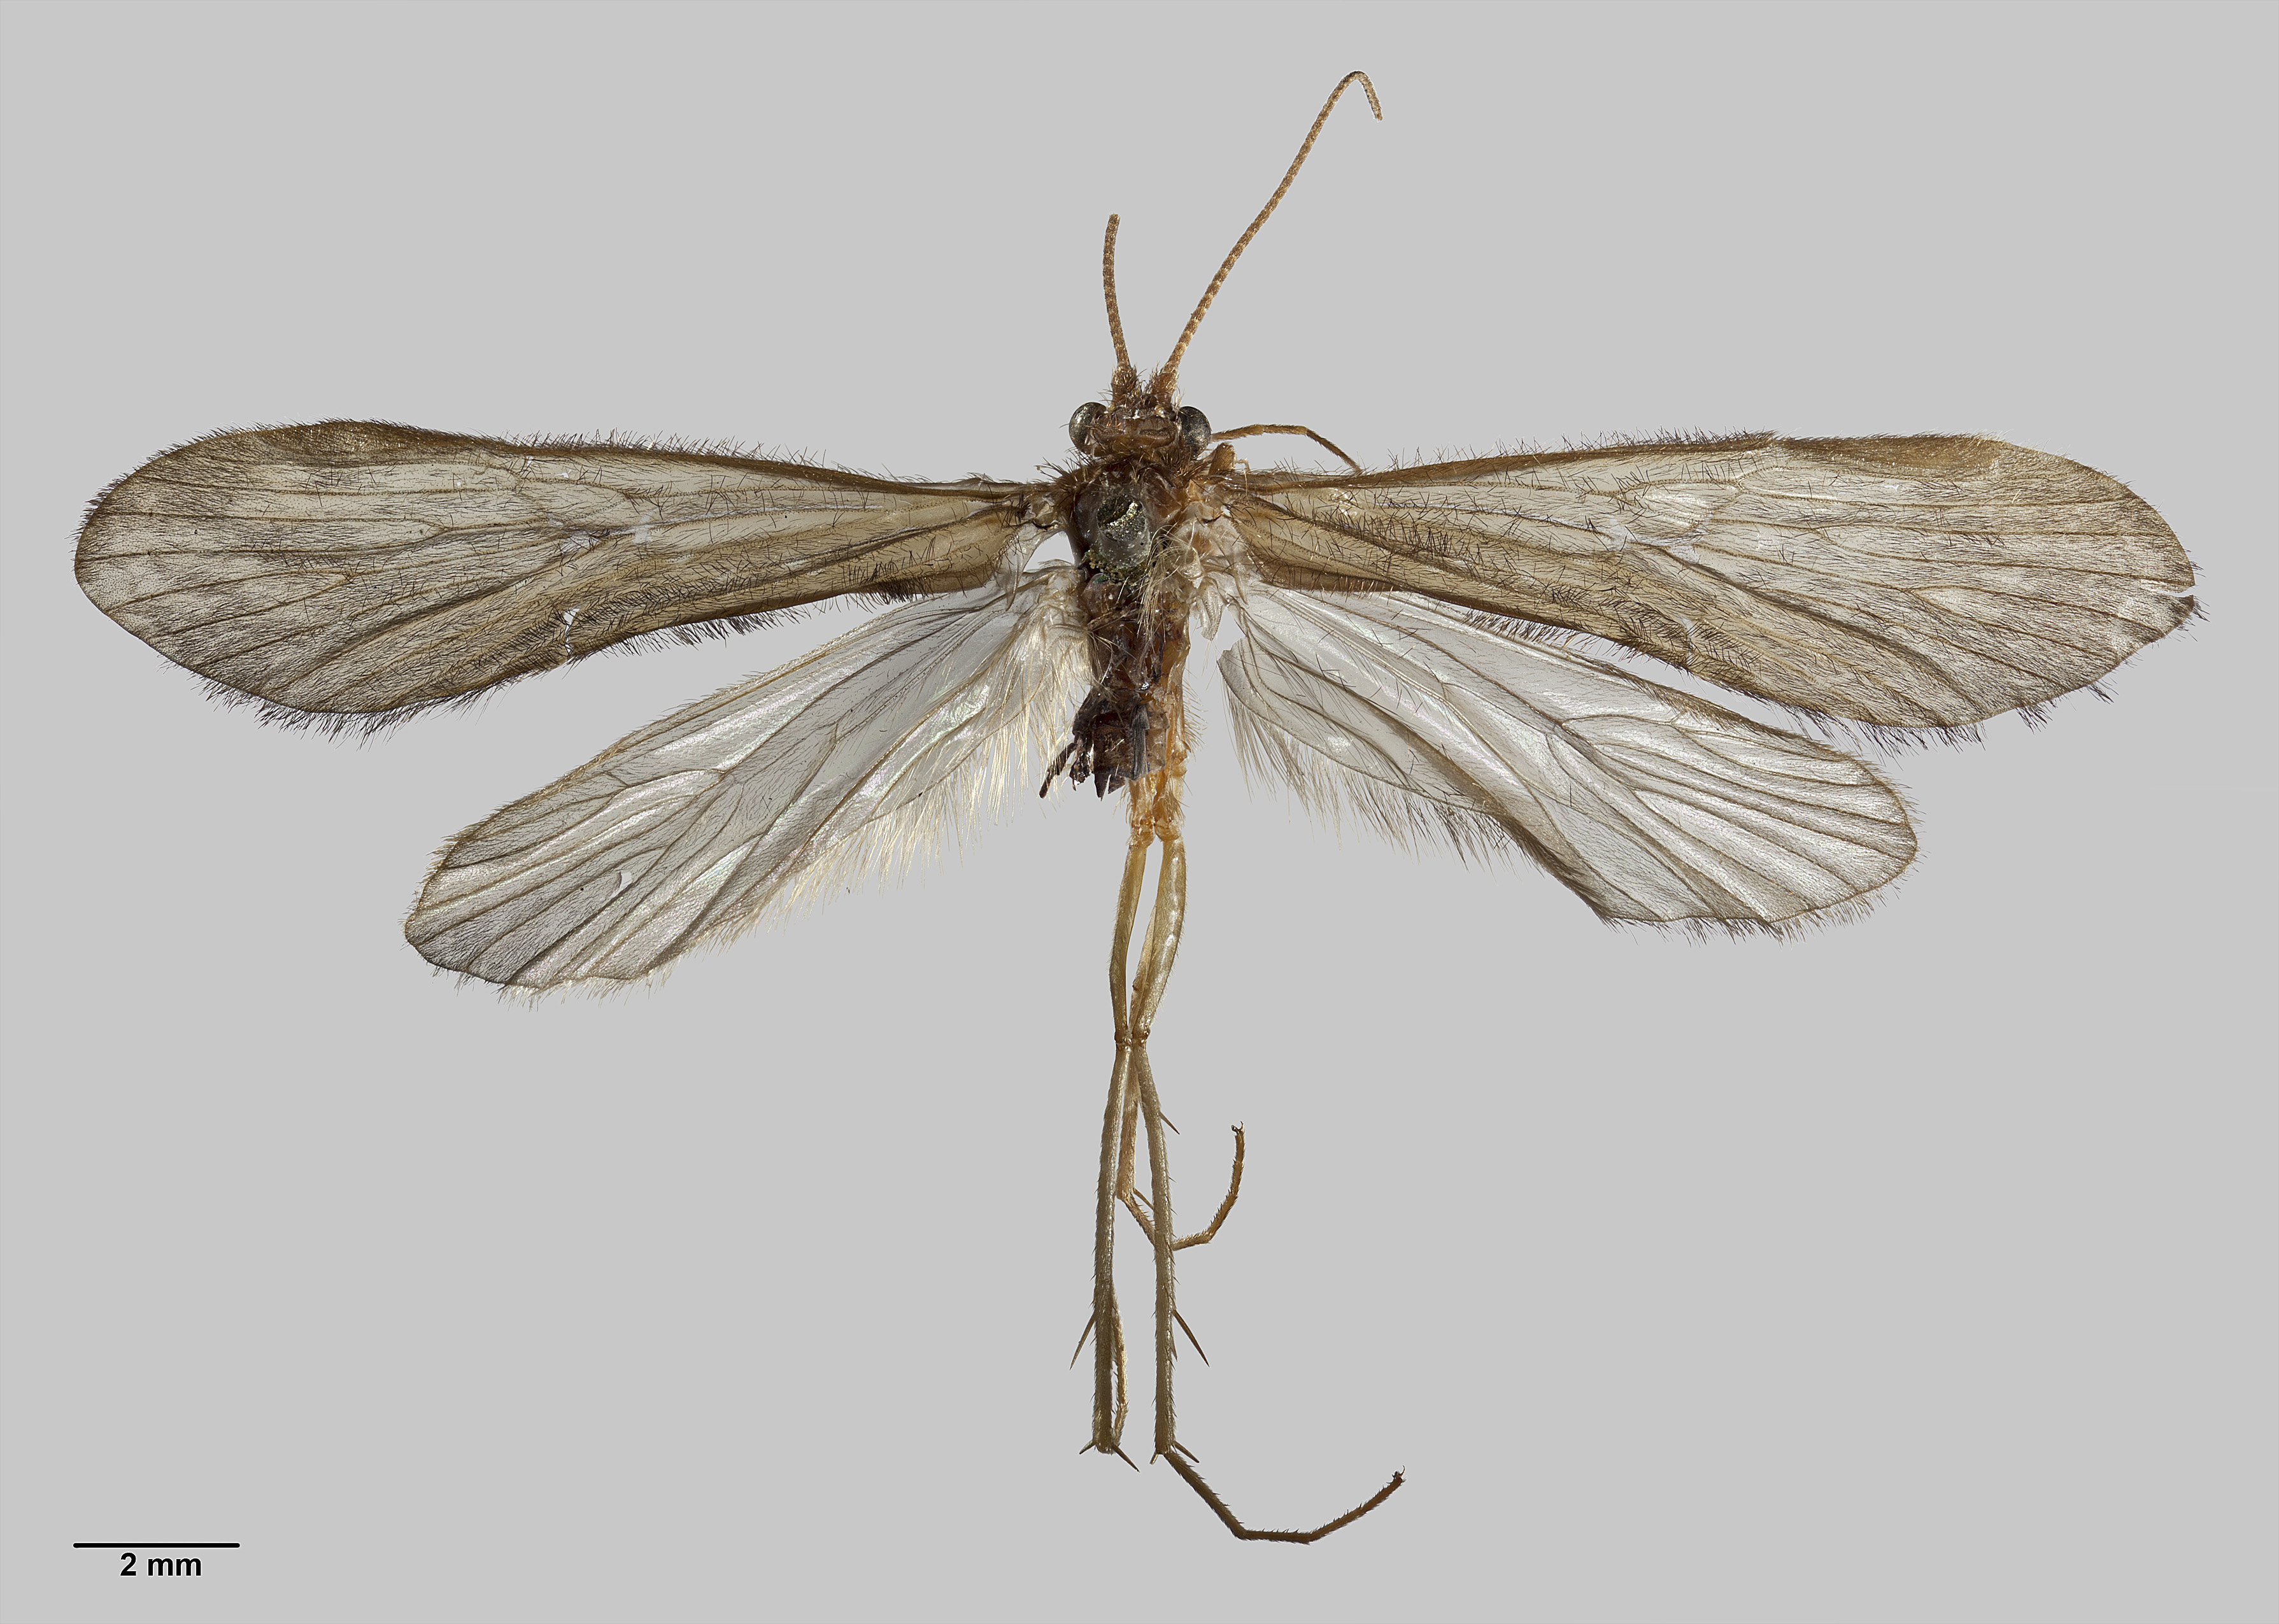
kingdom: Animalia
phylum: Arthropoda
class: Insecta
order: Trichoptera
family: Hydrobiosidae
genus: Hydrobiosis
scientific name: Hydrobiosis falcis
